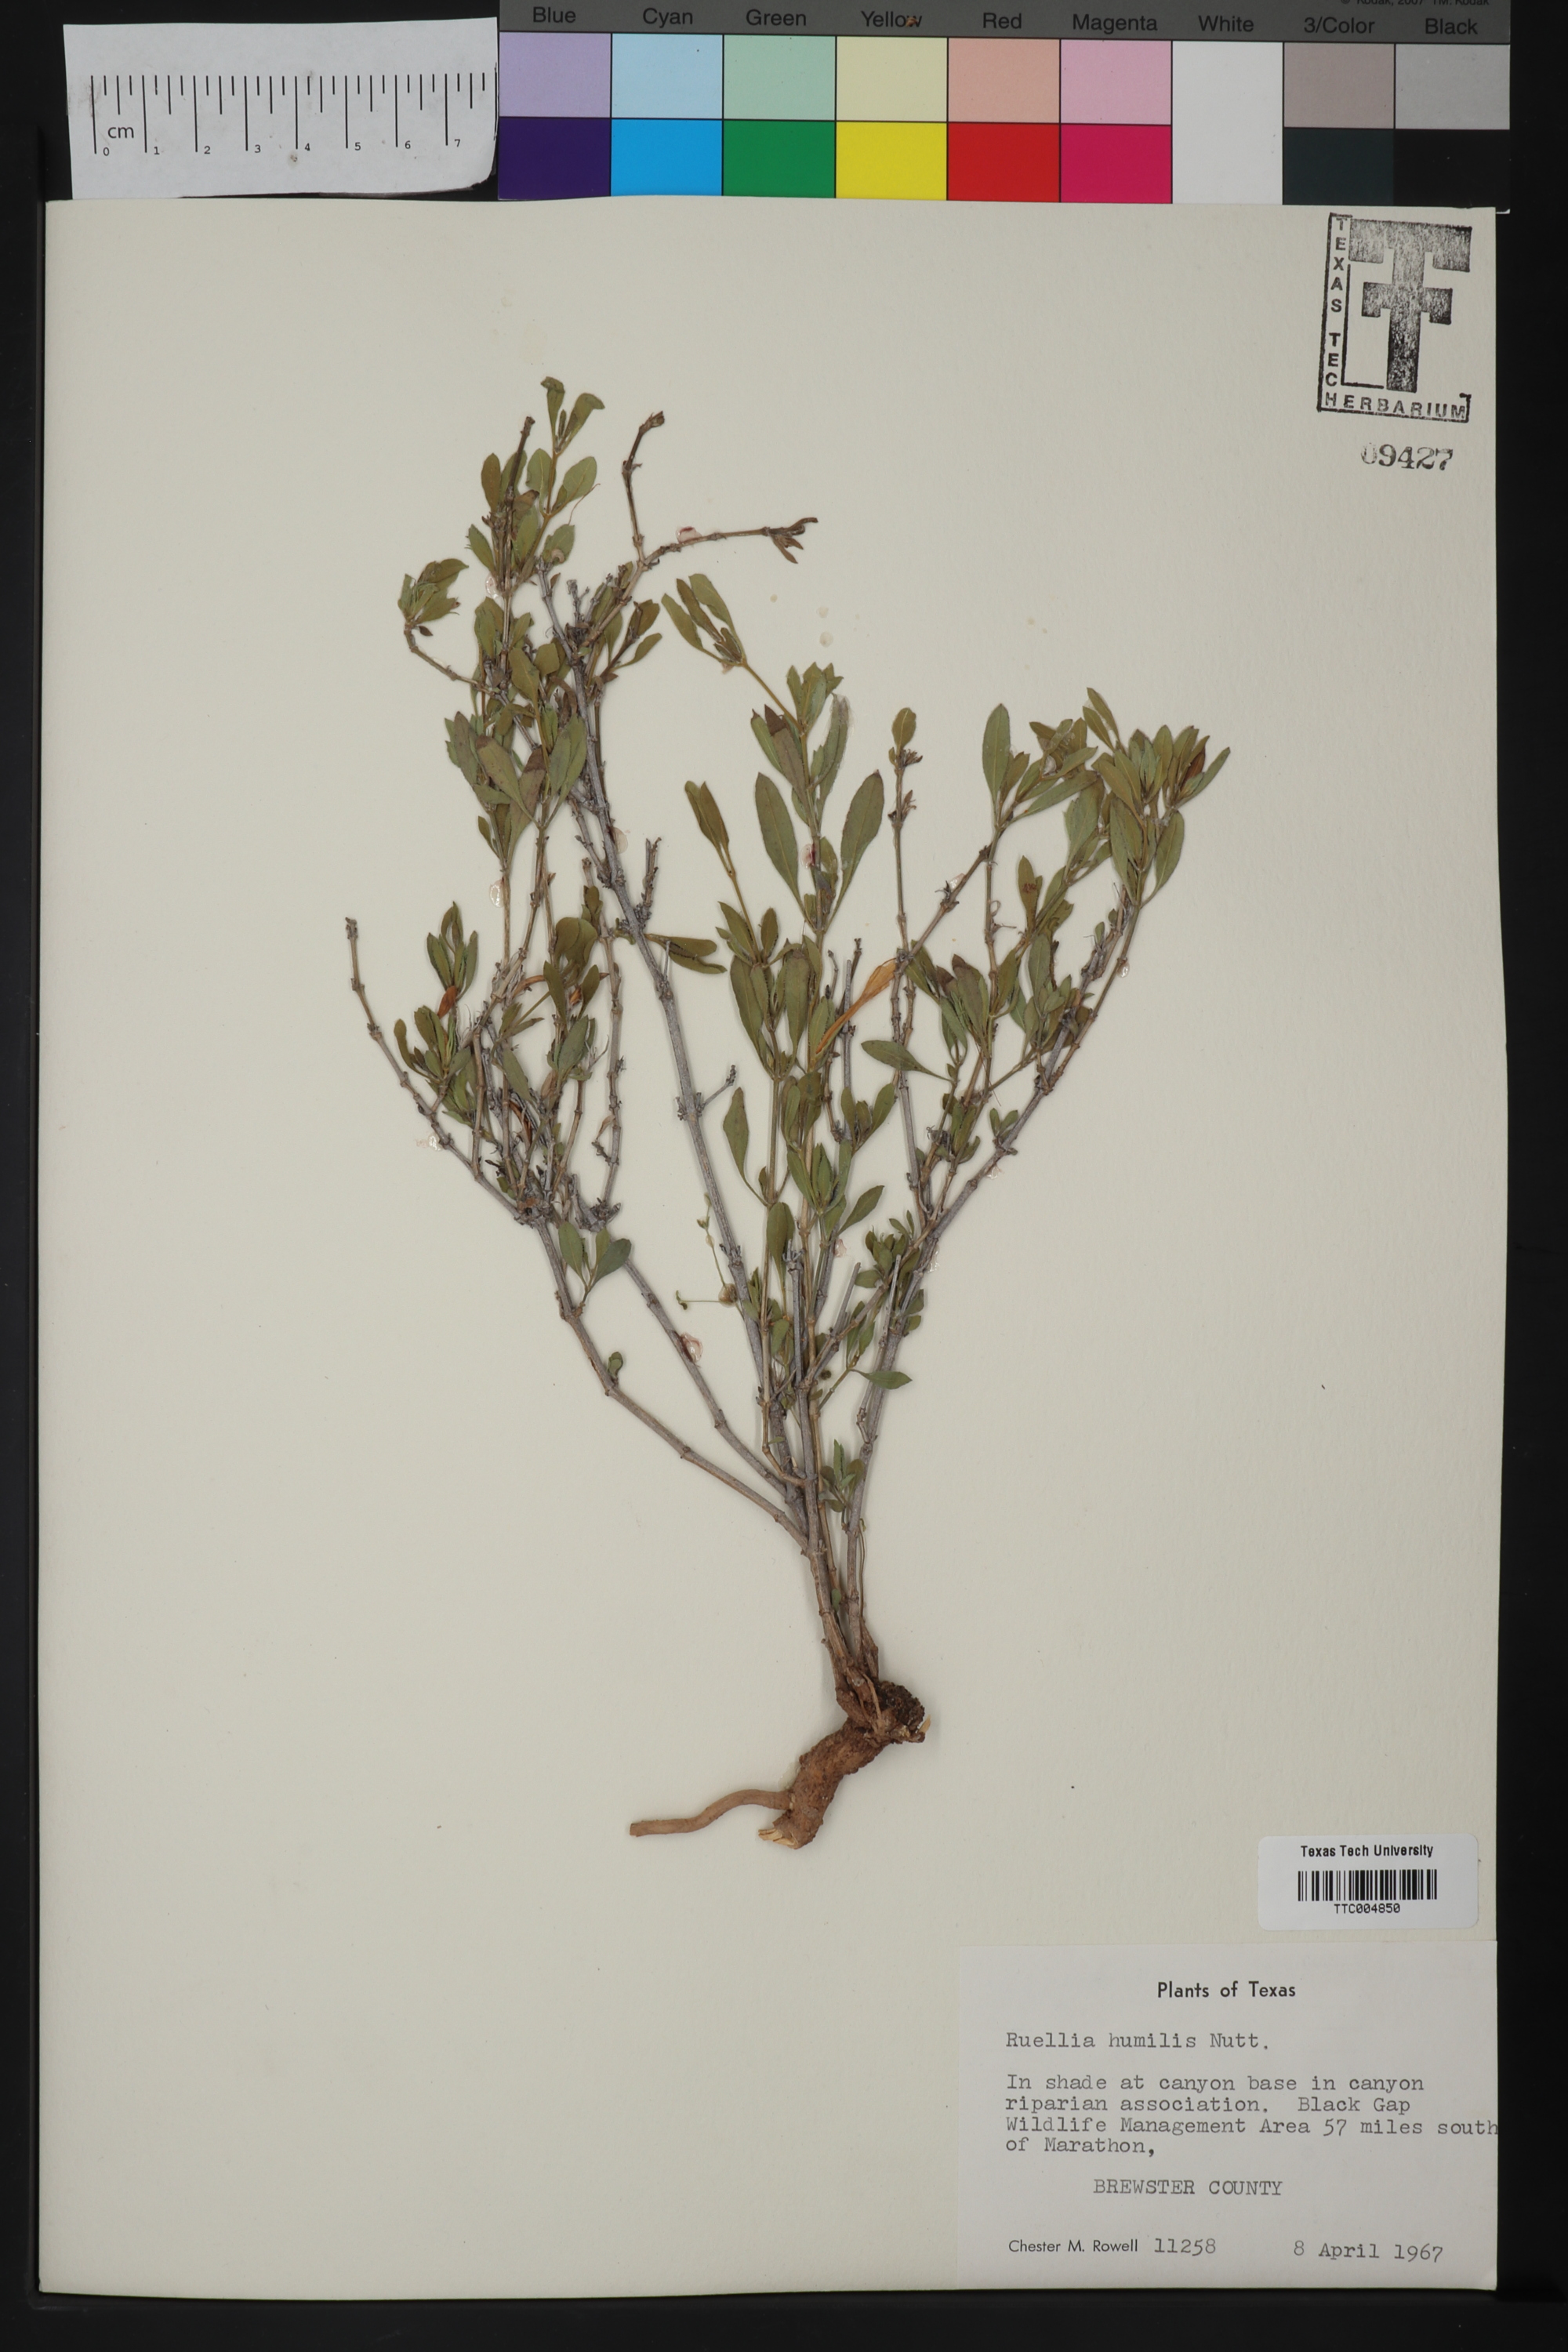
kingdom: Plantae
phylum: Tracheophyta
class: Magnoliopsida
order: Lamiales
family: Acanthaceae
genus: Ruellia
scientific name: Ruellia humilis
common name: Fringe-leaf ruellia
